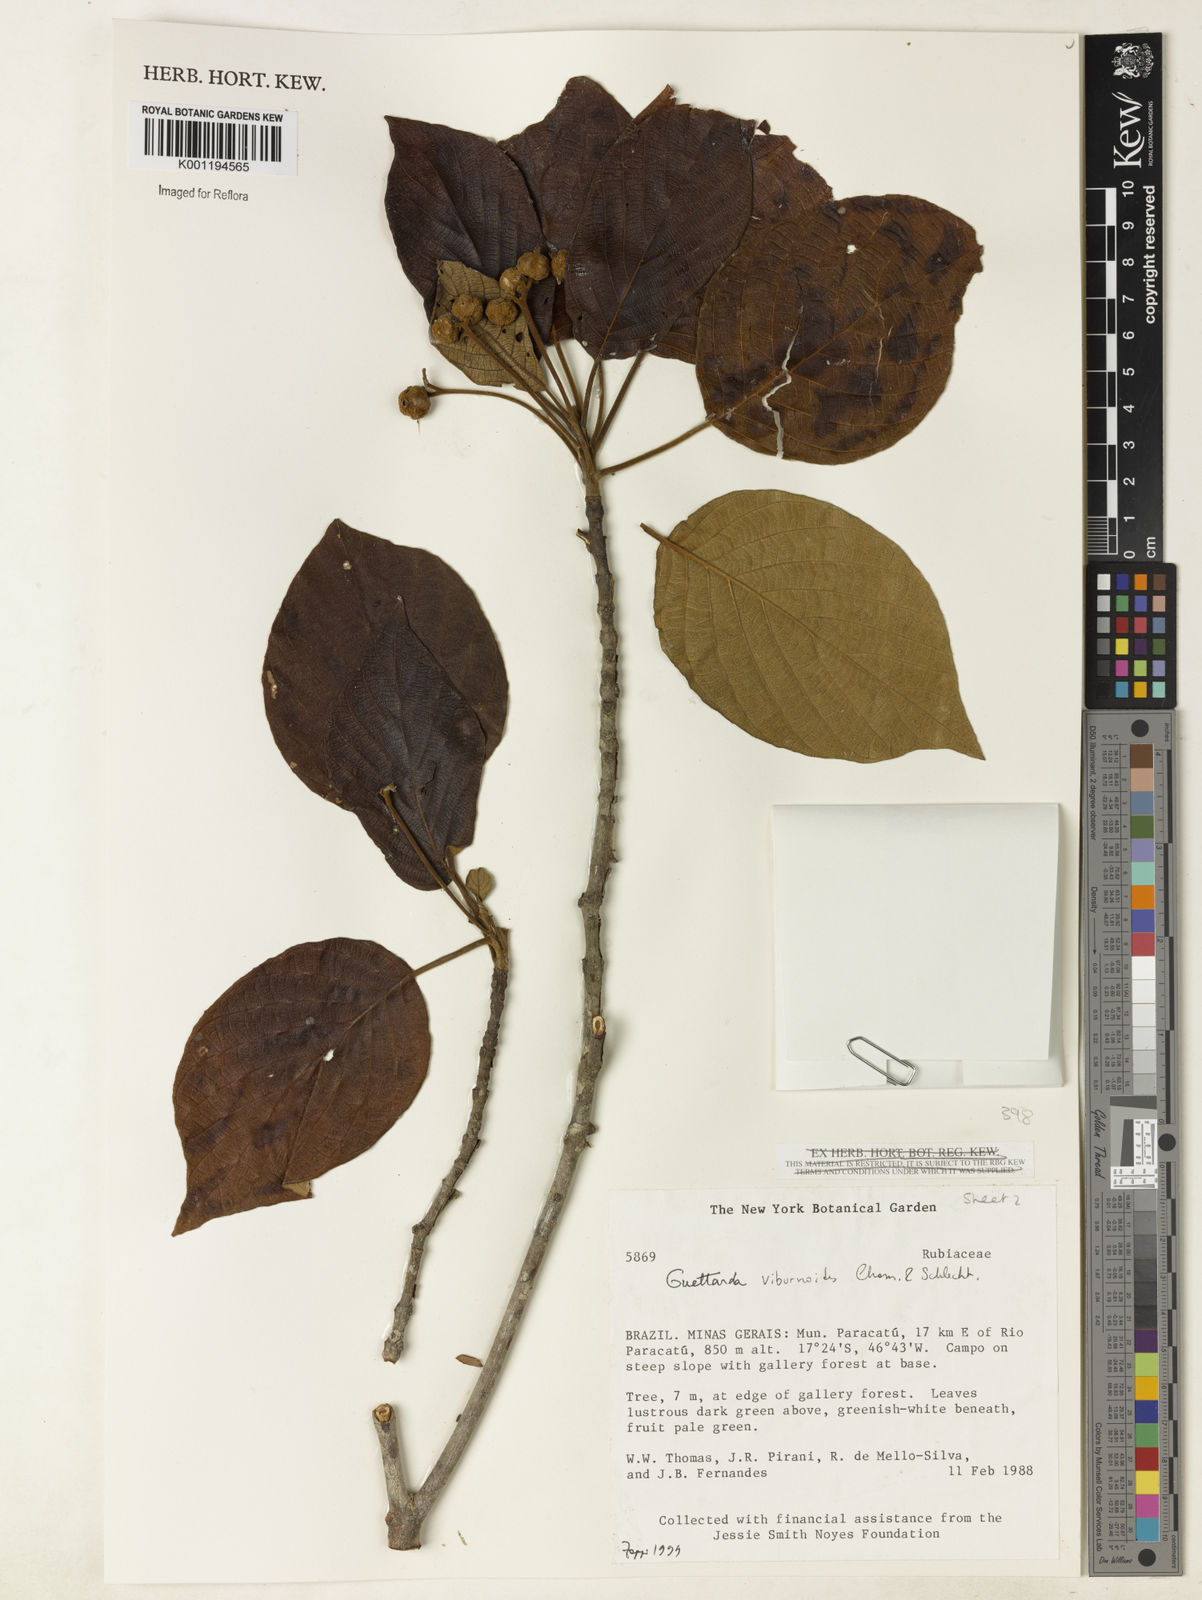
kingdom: Plantae
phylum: Tracheophyta
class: Magnoliopsida
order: Gentianales
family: Rubiaceae
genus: Guettarda
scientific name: Guettarda viburnoides
